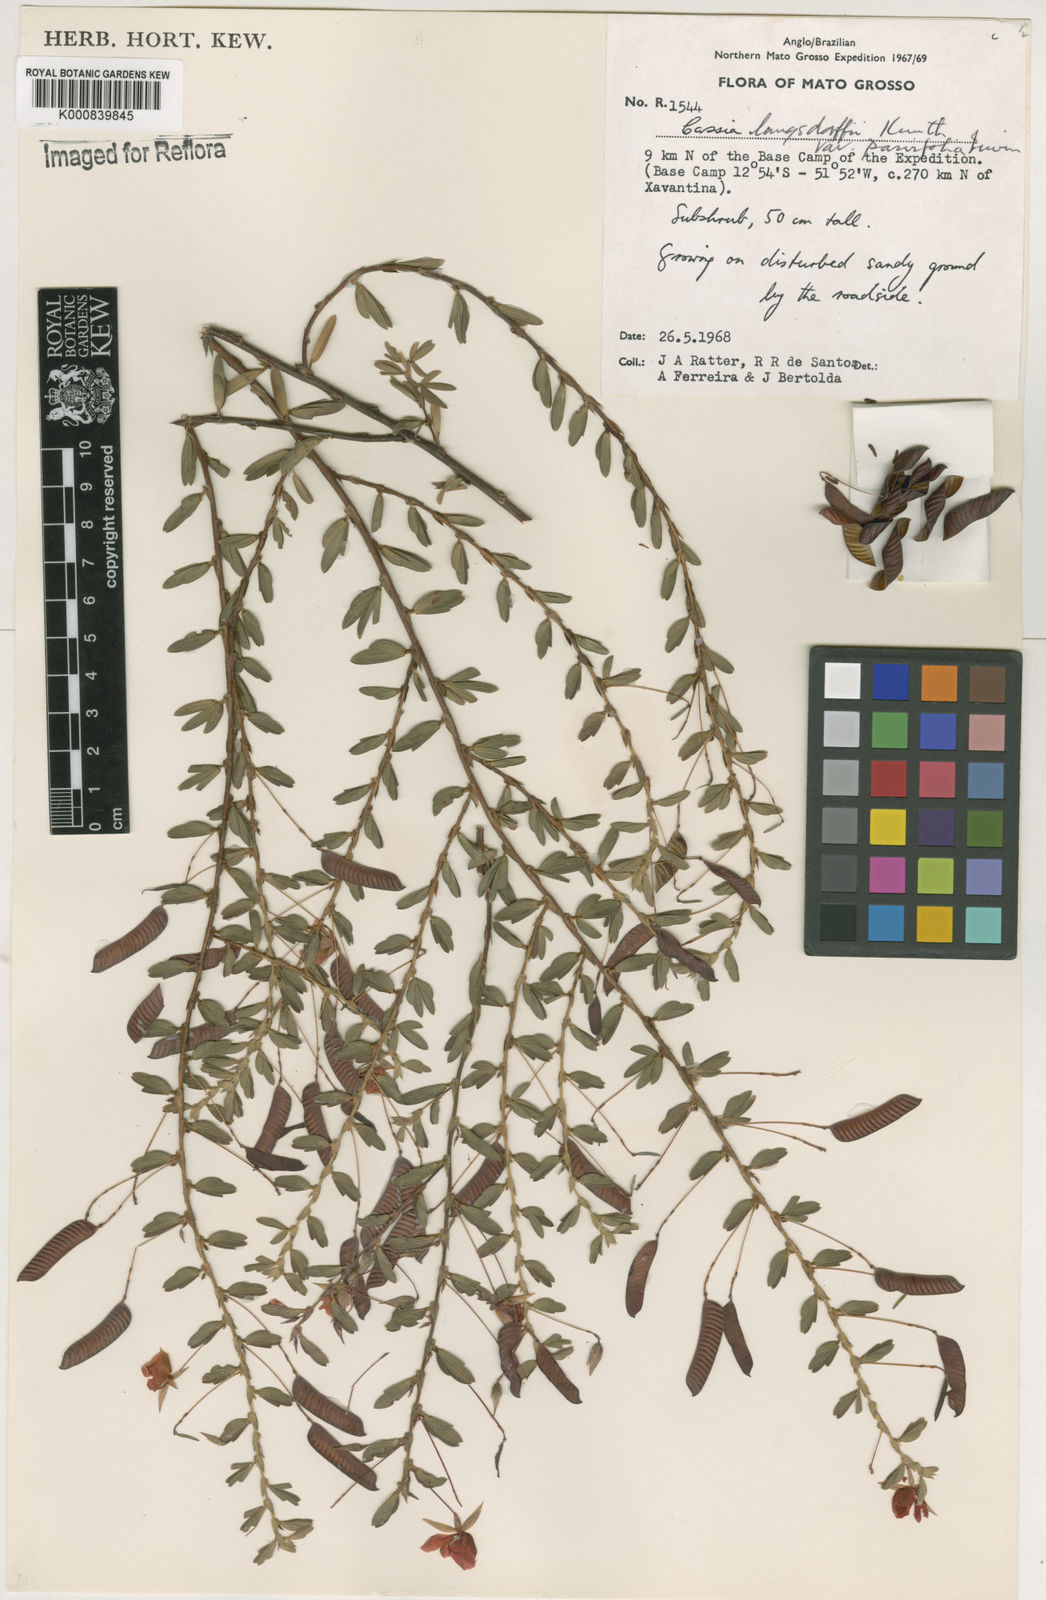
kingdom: Plantae
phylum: Tracheophyta
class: Magnoliopsida
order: Fabales
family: Fabaceae
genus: Chamaecrista
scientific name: Chamaecrista ramosa
